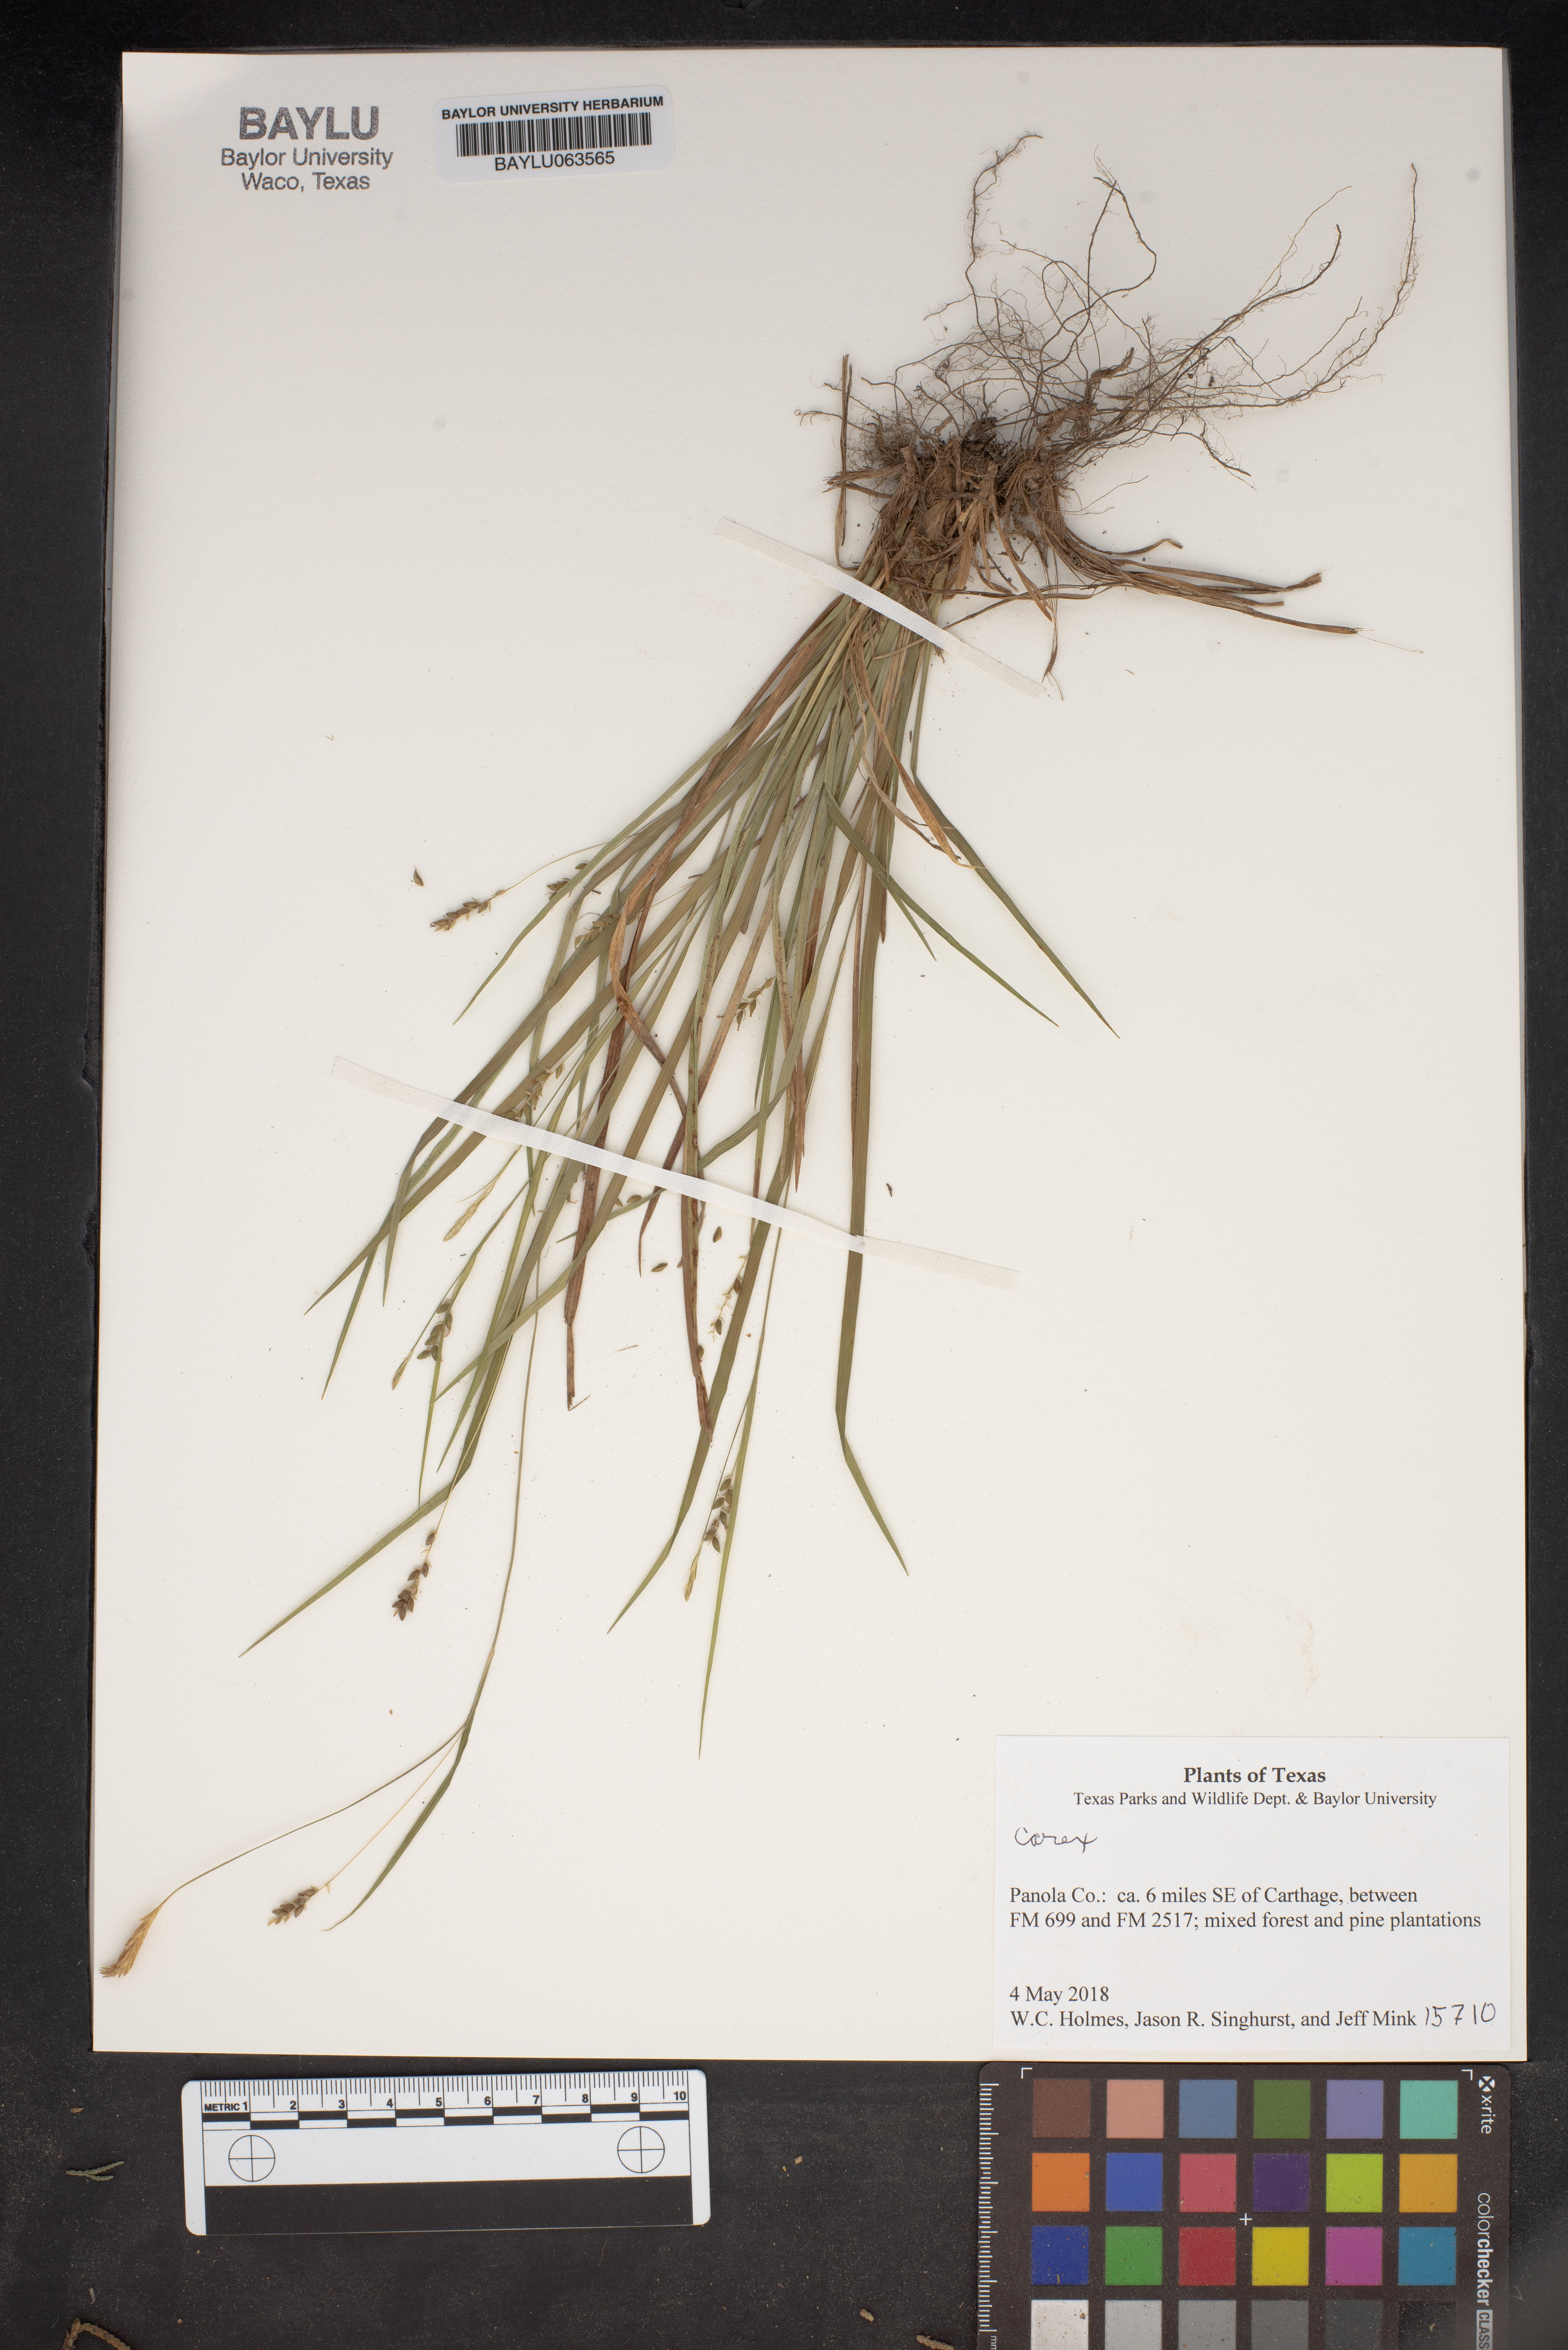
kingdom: Plantae
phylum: Tracheophyta
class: Liliopsida
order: Poales
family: Cyperaceae
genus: Carex
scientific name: Carex
